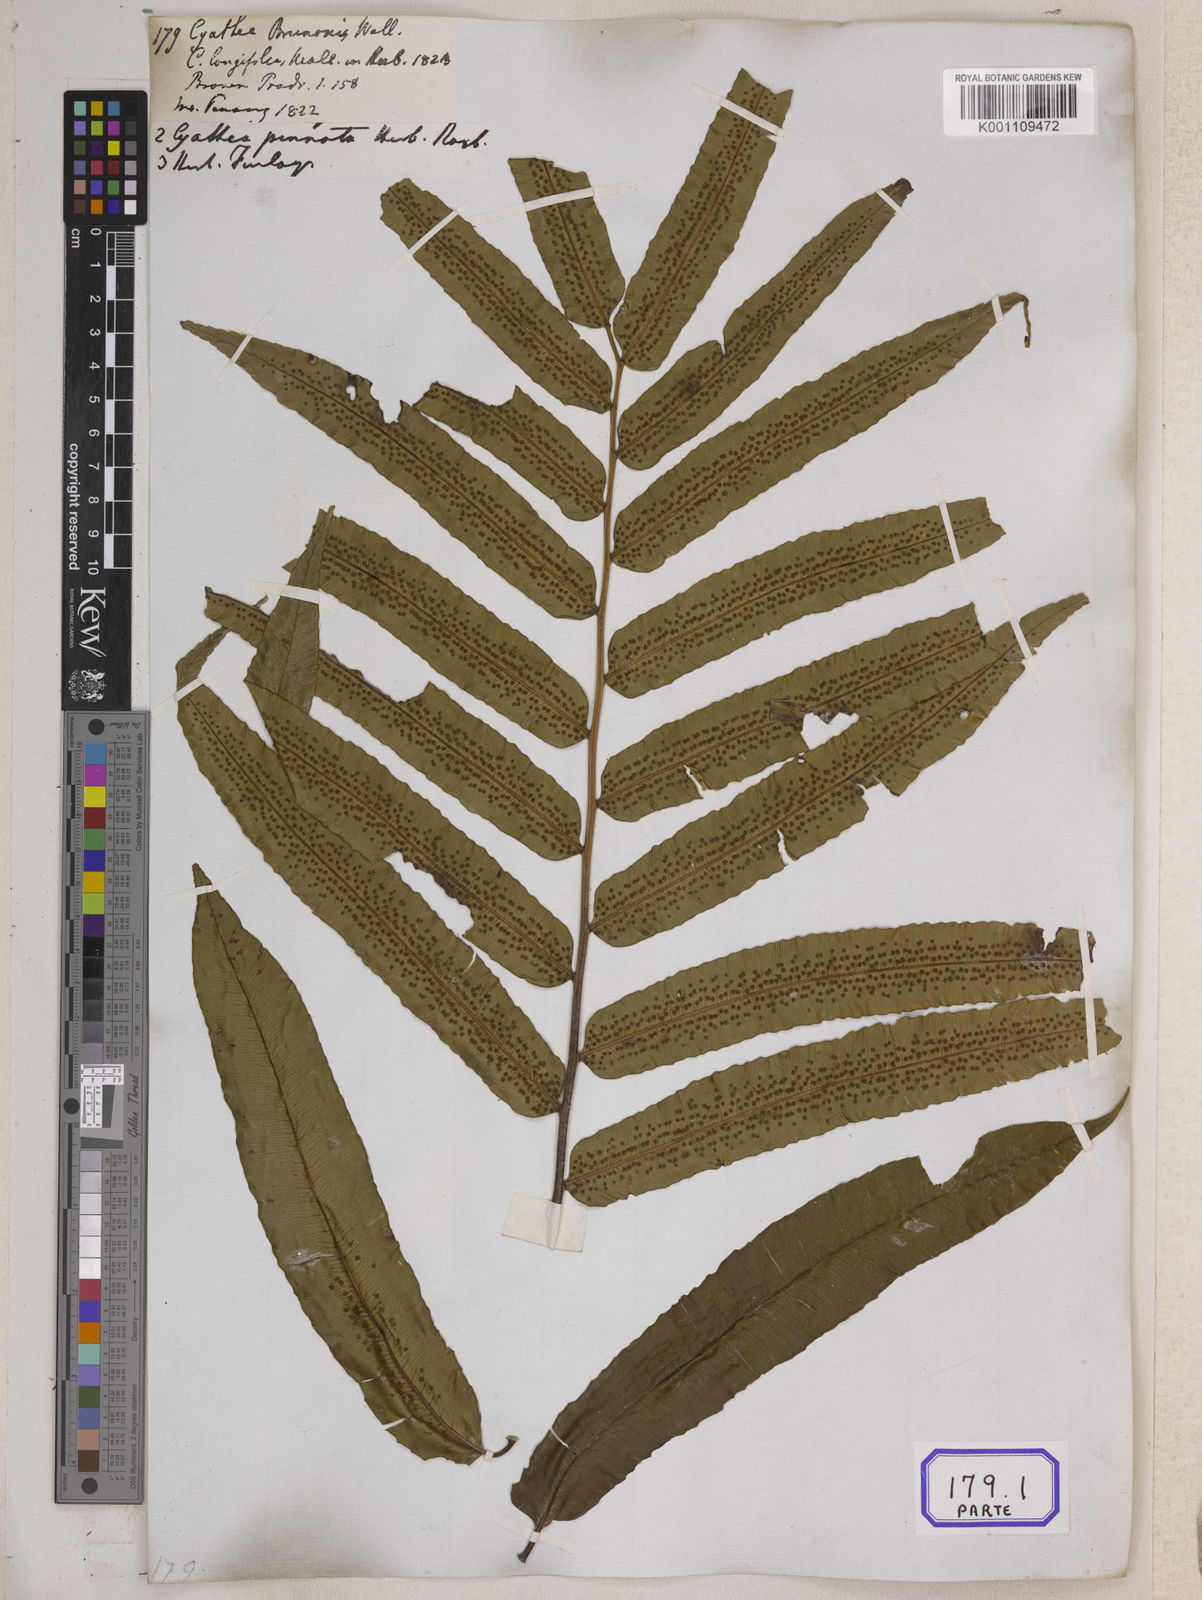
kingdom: Plantae
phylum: Tracheophyta
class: Polypodiopsida
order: Cyatheales
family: Cyatheaceae
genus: Sphaeropteris
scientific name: Sphaeropteris moluccana
